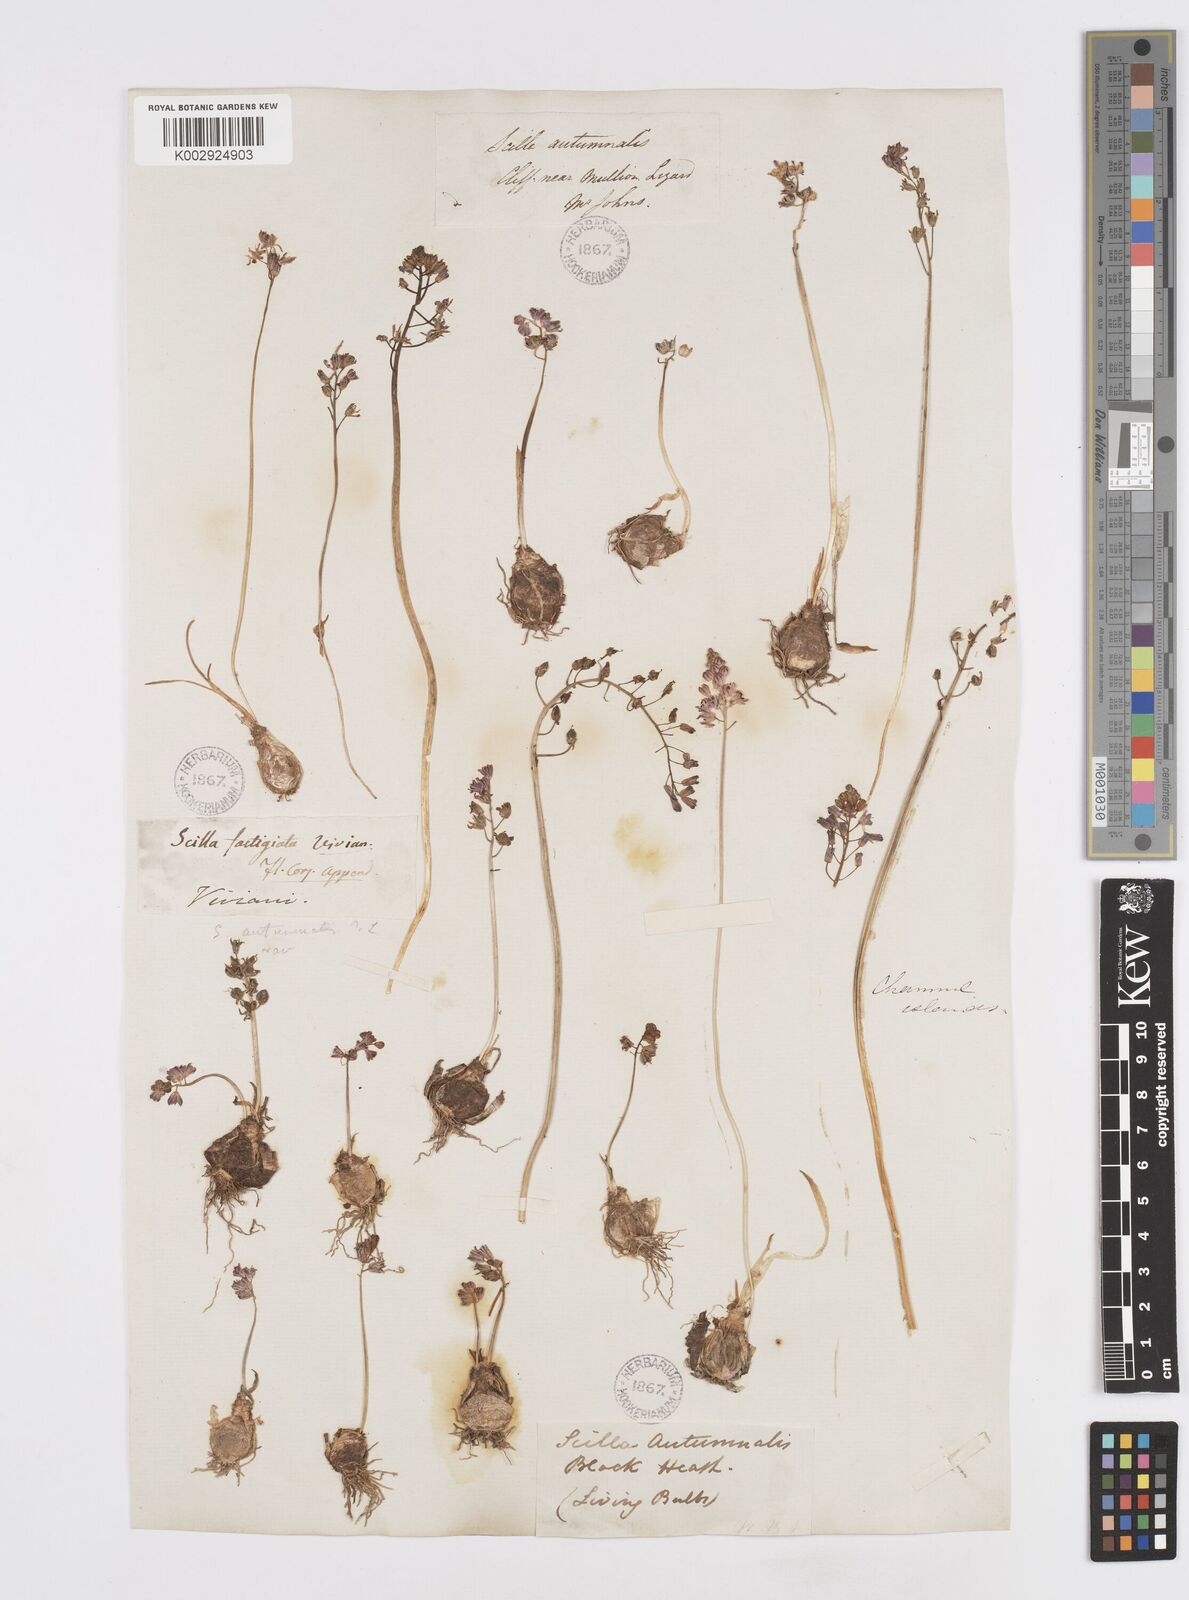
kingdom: Plantae
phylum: Tracheophyta
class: Liliopsida
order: Asparagales
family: Asparagaceae
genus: Prospero
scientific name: Prospero autumnale
